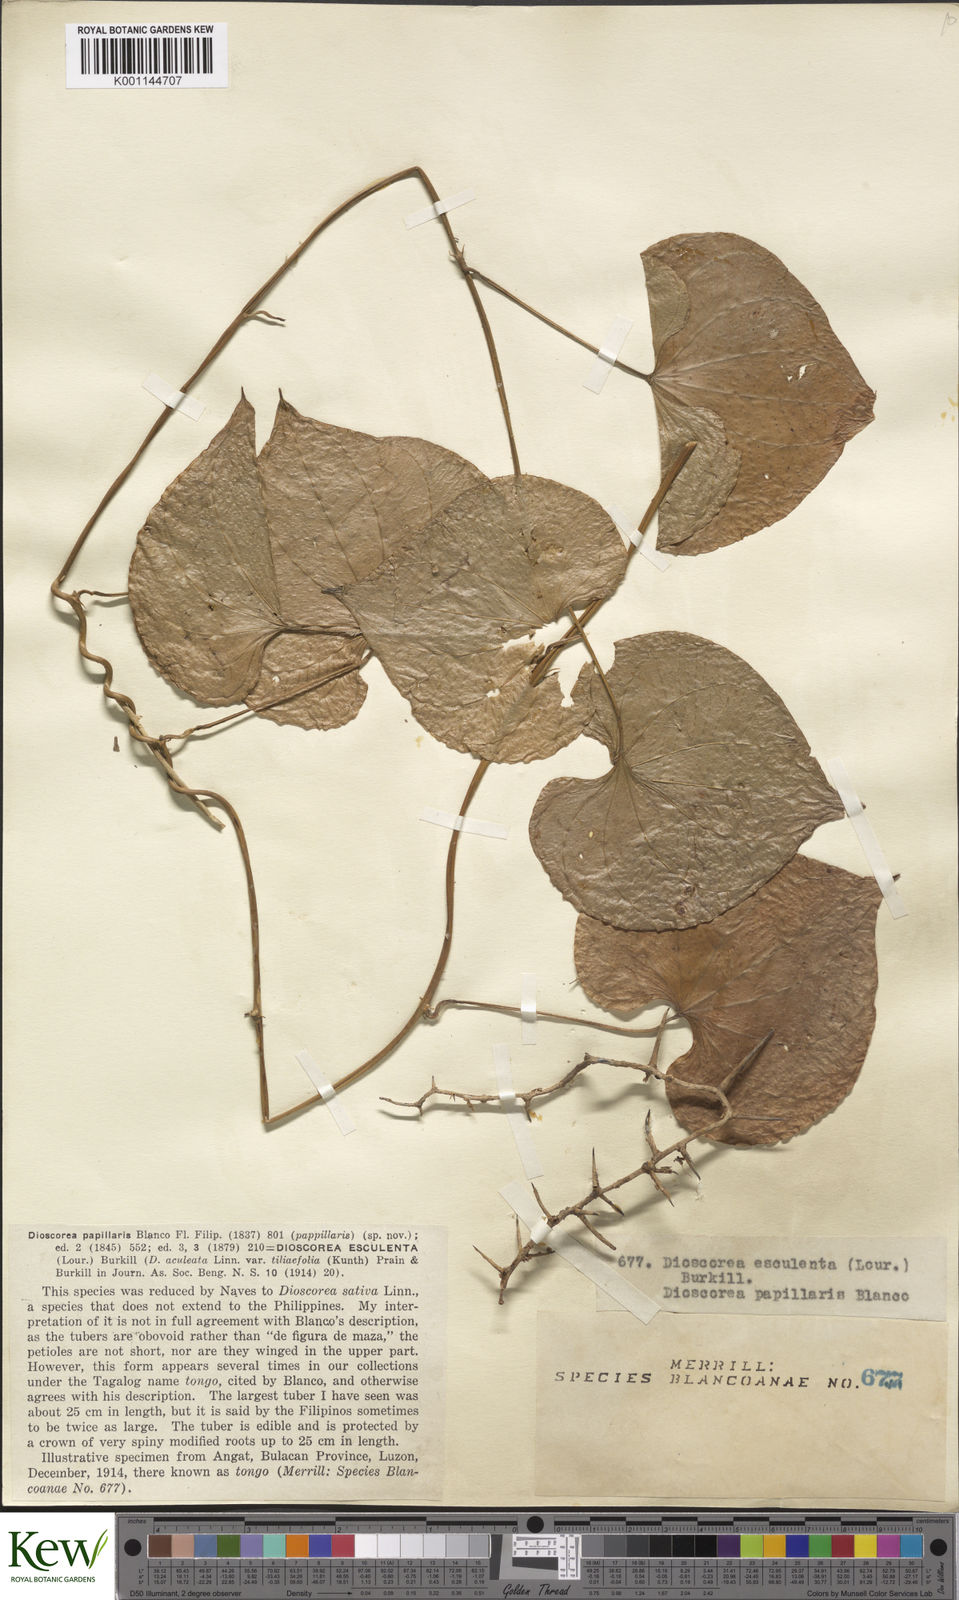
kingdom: Plantae
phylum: Tracheophyta
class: Liliopsida
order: Dioscoreales
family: Dioscoreaceae
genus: Dioscorea
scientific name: Dioscorea esculenta
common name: Chinese yam
